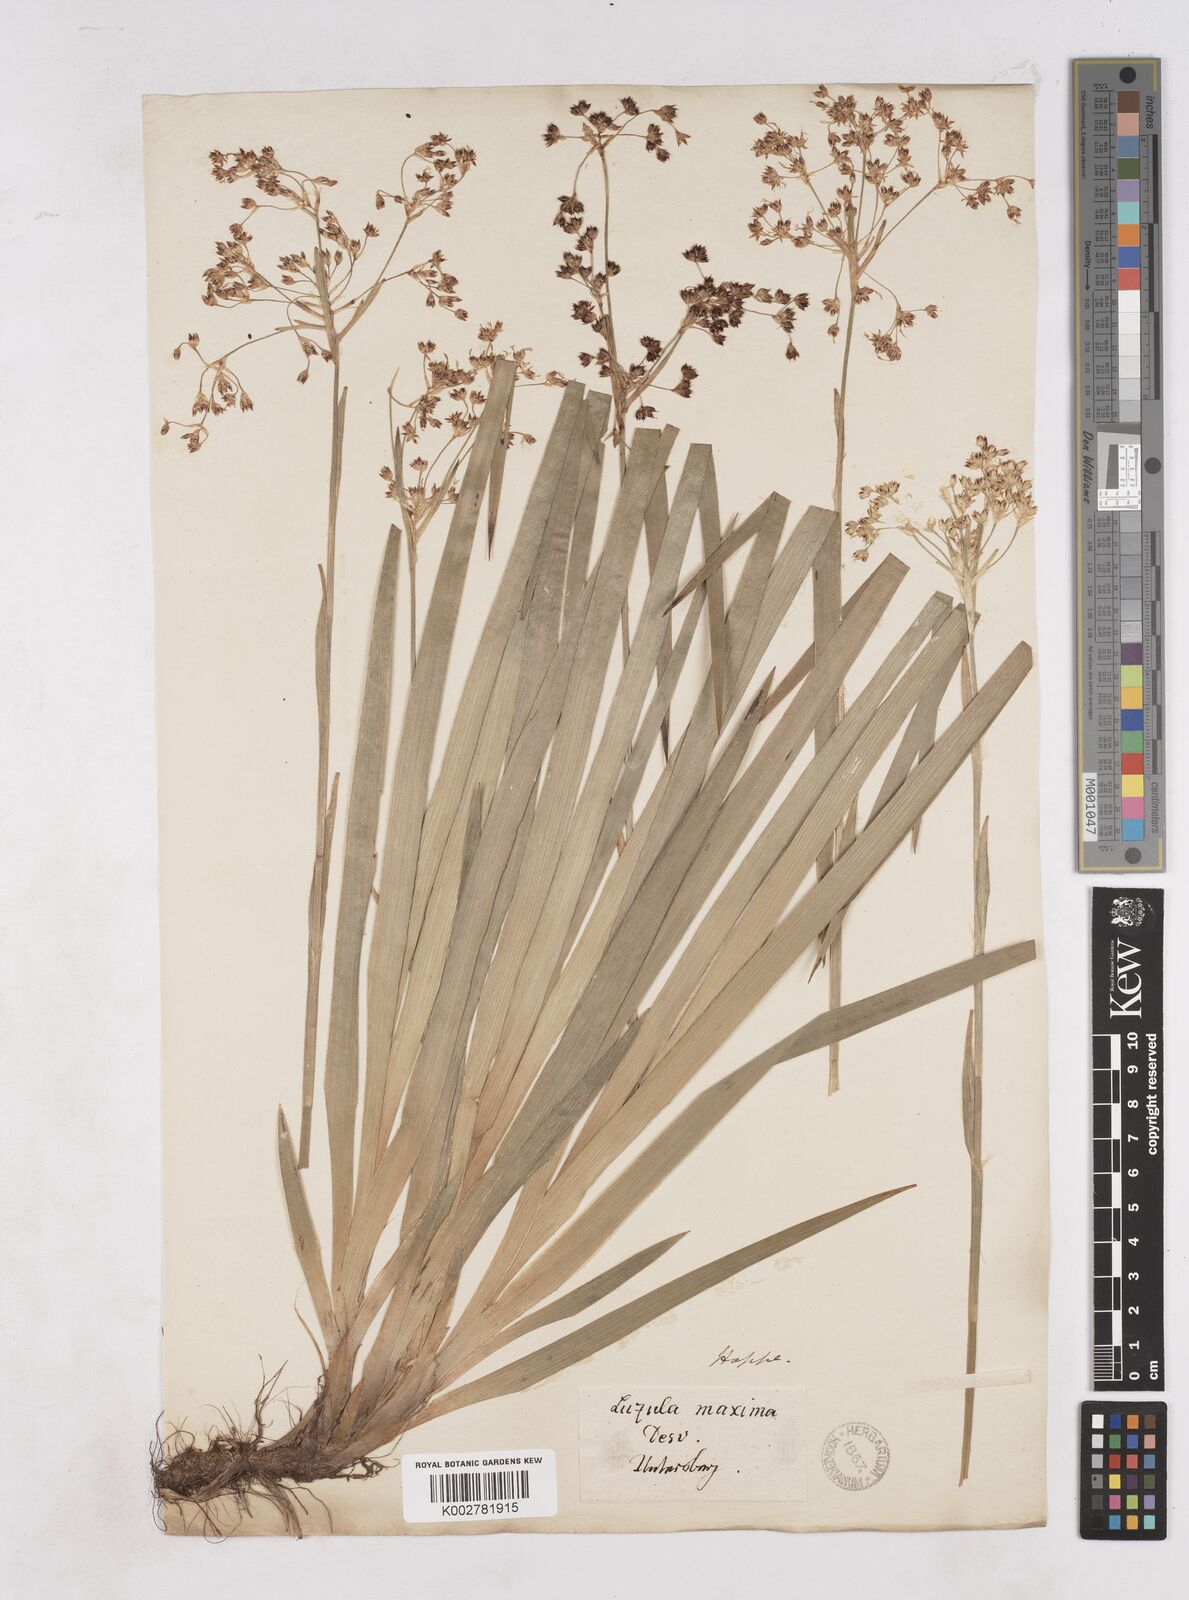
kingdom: Plantae
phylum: Tracheophyta
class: Liliopsida
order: Poales
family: Juncaceae
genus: Luzula
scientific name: Luzula sylvatica
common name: Great wood-rush
